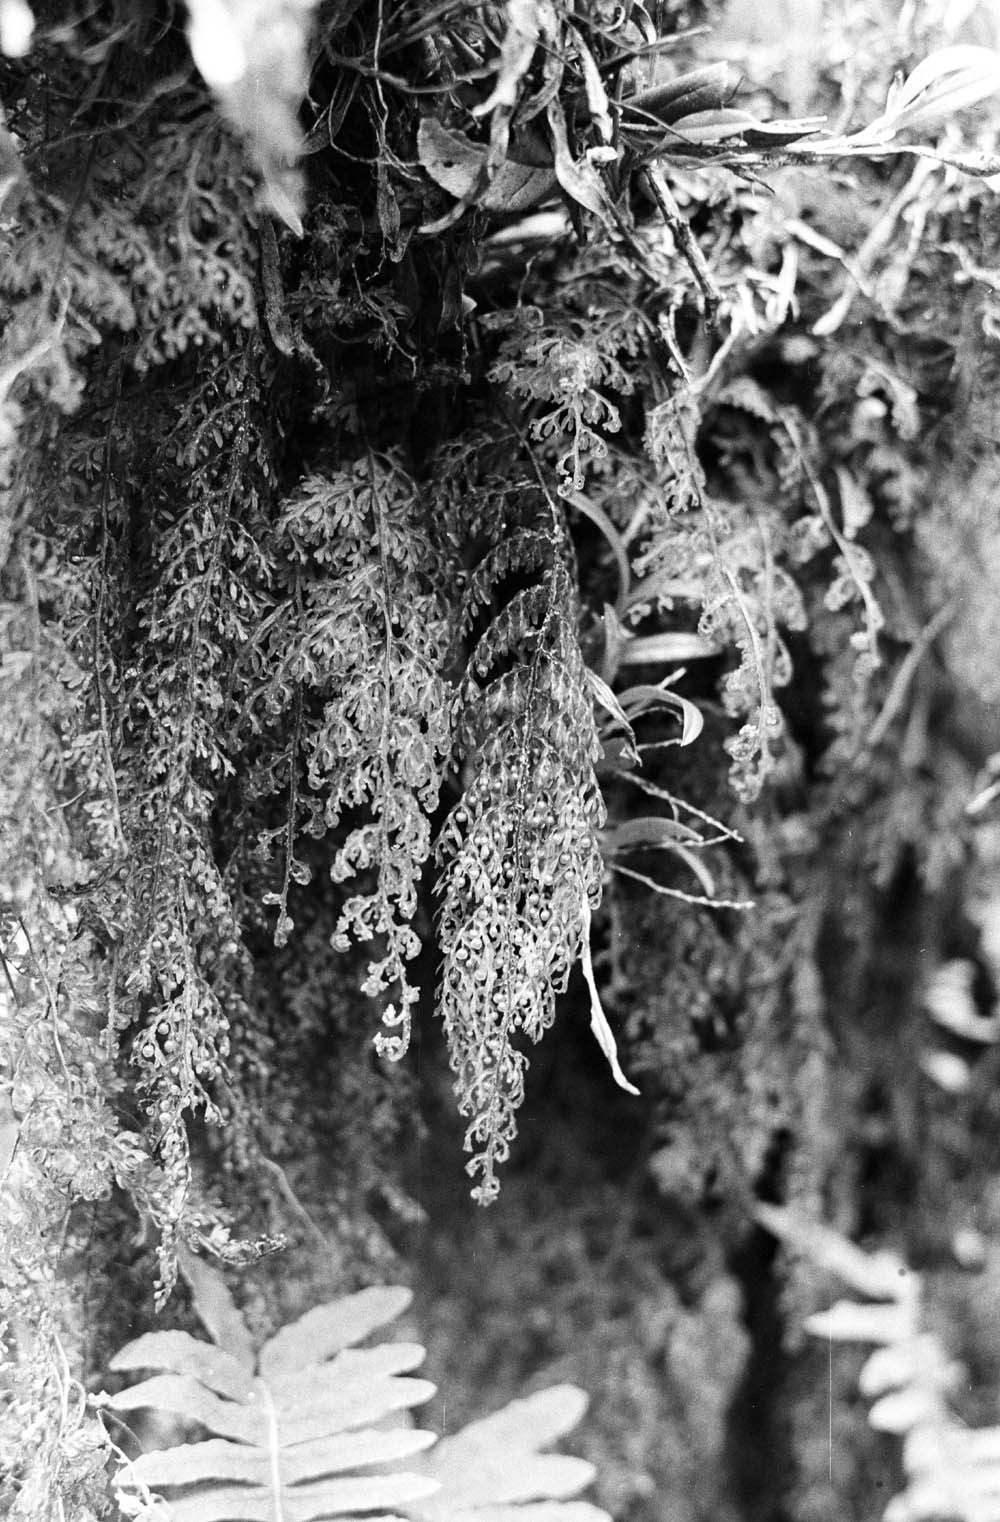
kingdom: Plantae
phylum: Tracheophyta
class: Polypodiopsida
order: Hymenophyllales
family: Hymenophyllaceae
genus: Hymenophyllum
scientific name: Hymenophyllum myriocarpum
